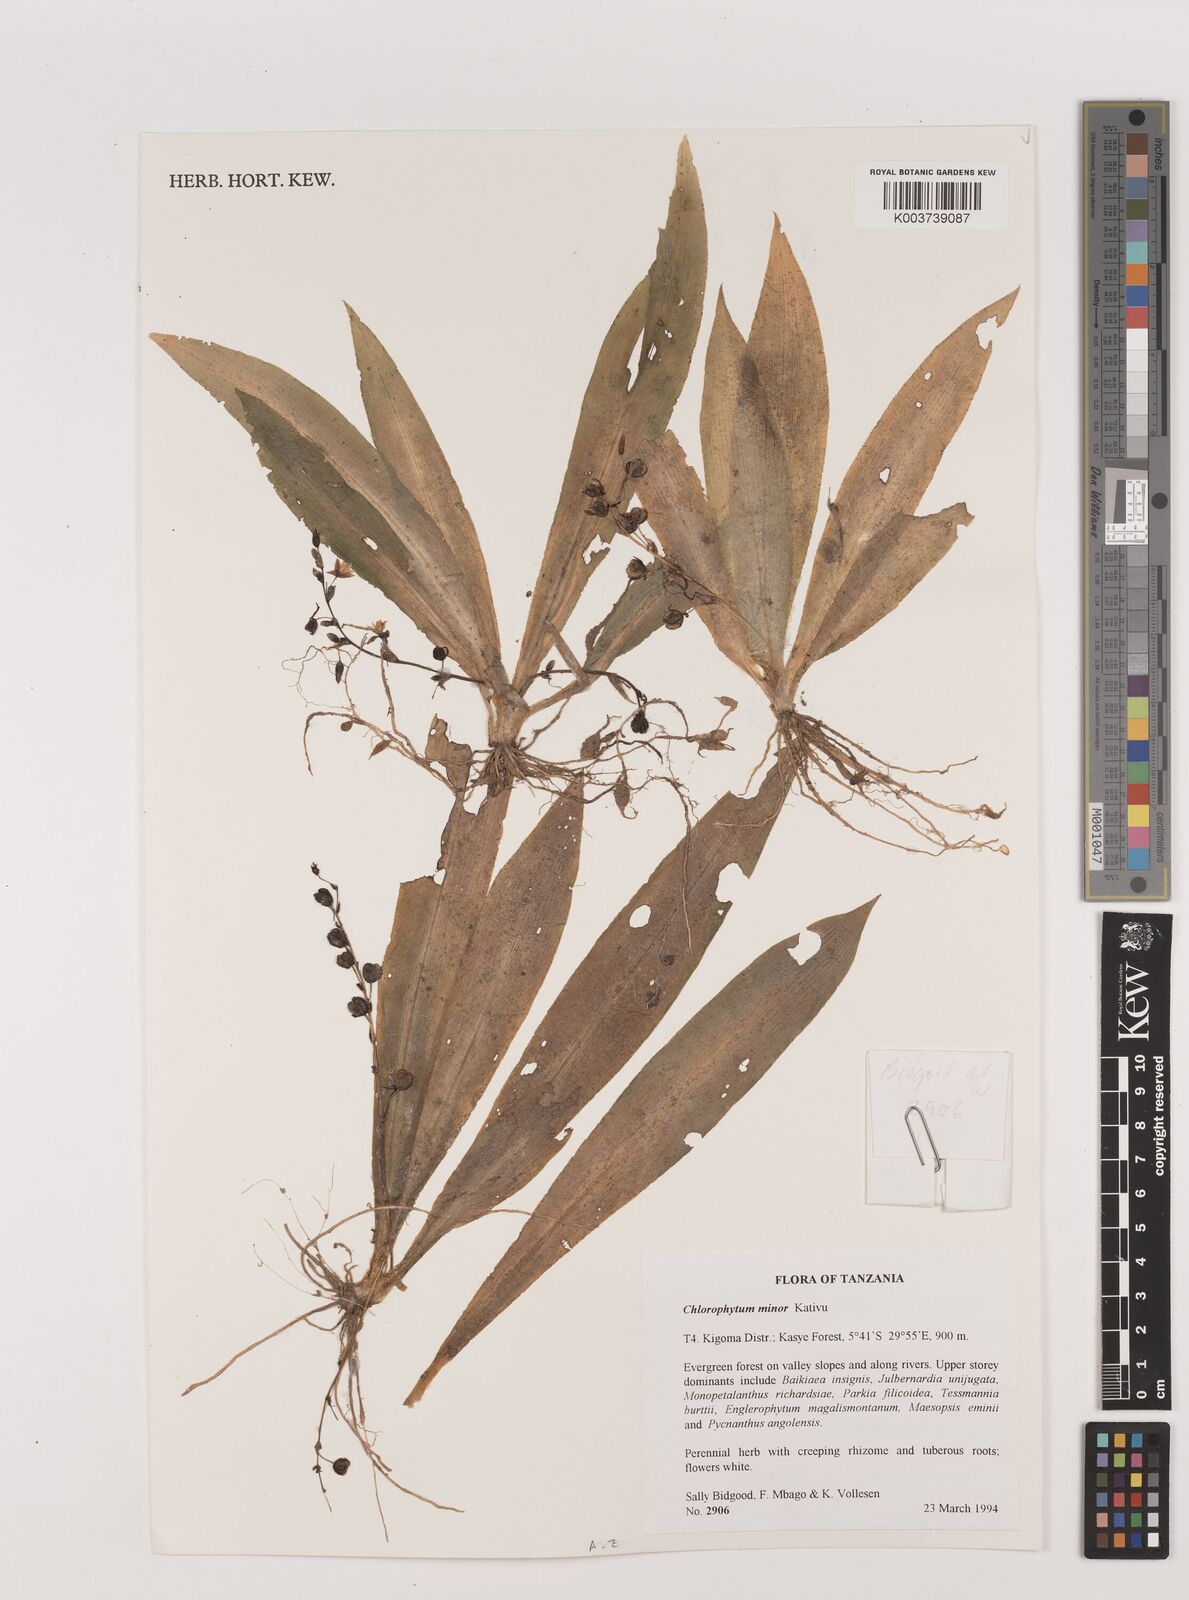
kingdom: Plantae
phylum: Tracheophyta
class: Liliopsida
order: Asparagales
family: Asparagaceae
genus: Chlorophytum
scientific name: Chlorophytum minor
